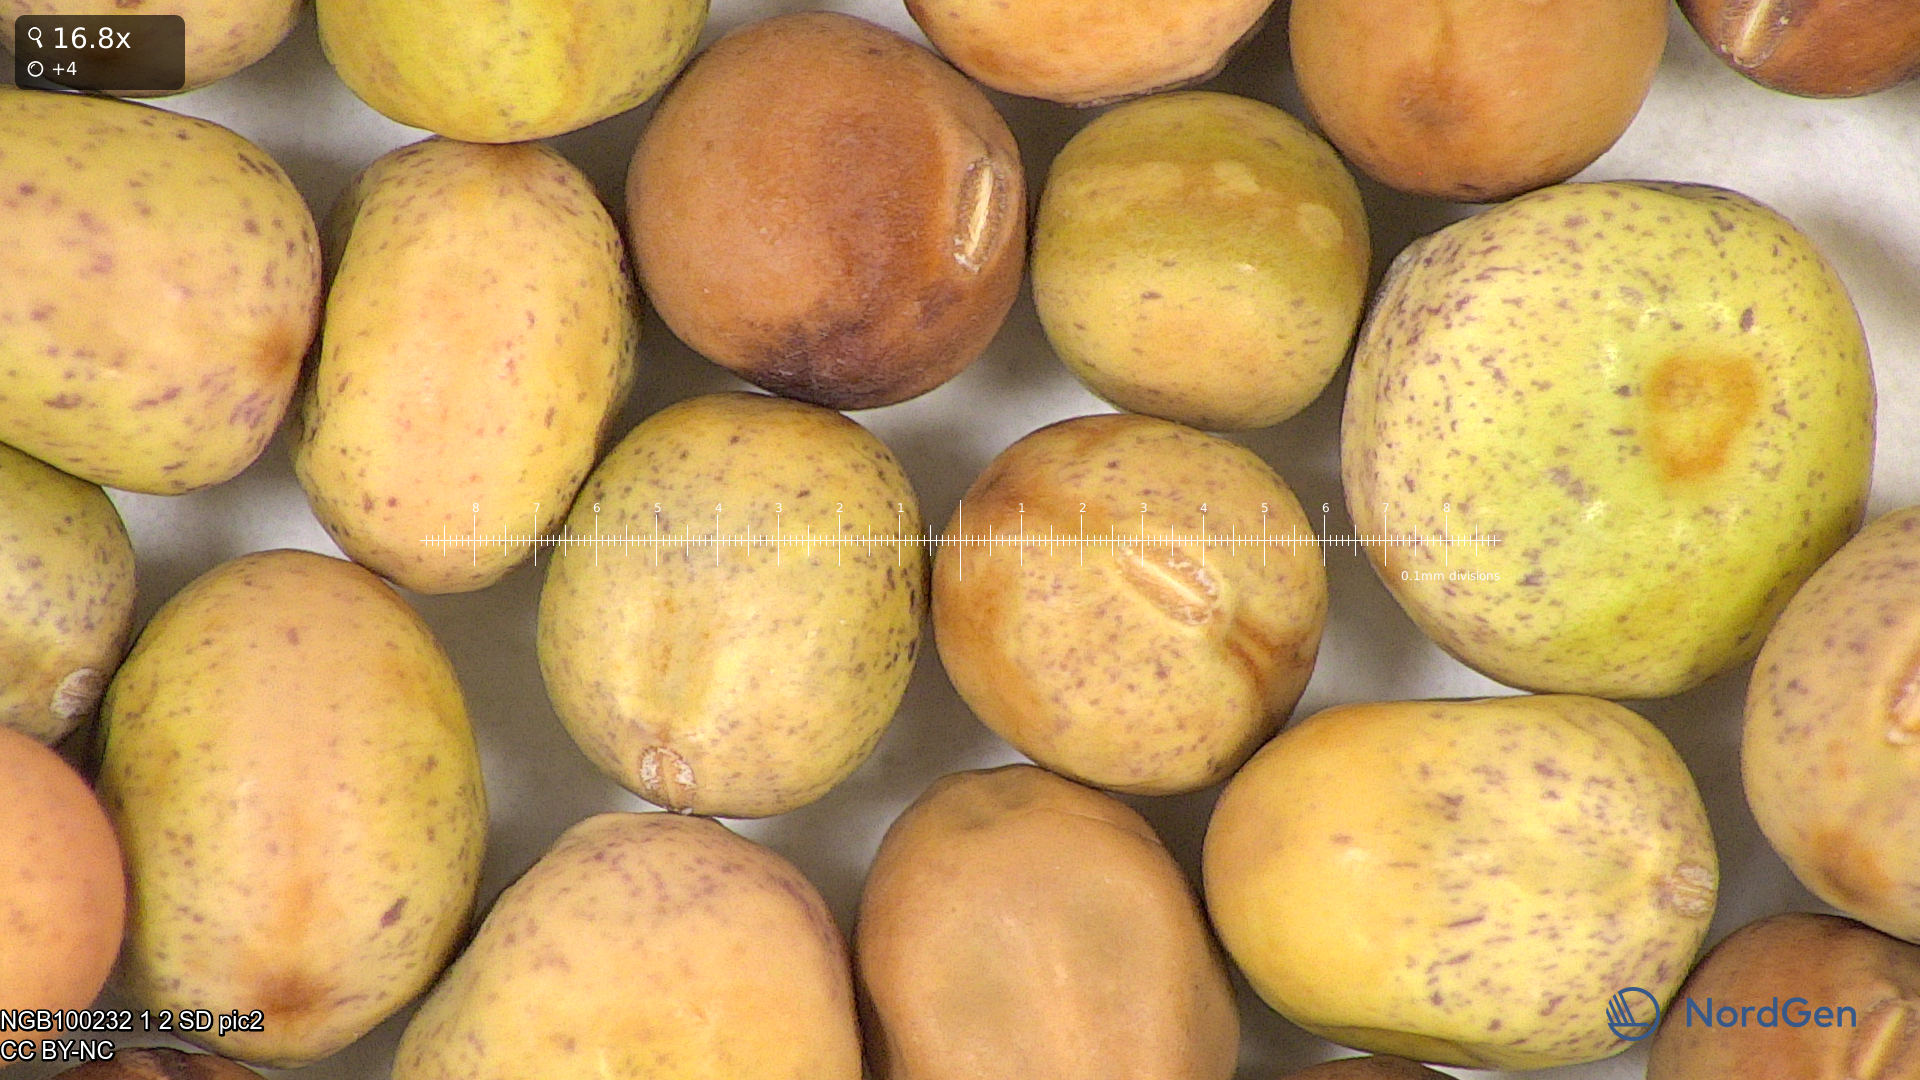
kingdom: Plantae
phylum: Tracheophyta
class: Magnoliopsida
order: Fabales
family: Fabaceae
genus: Lathyrus
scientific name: Lathyrus oleraceus
